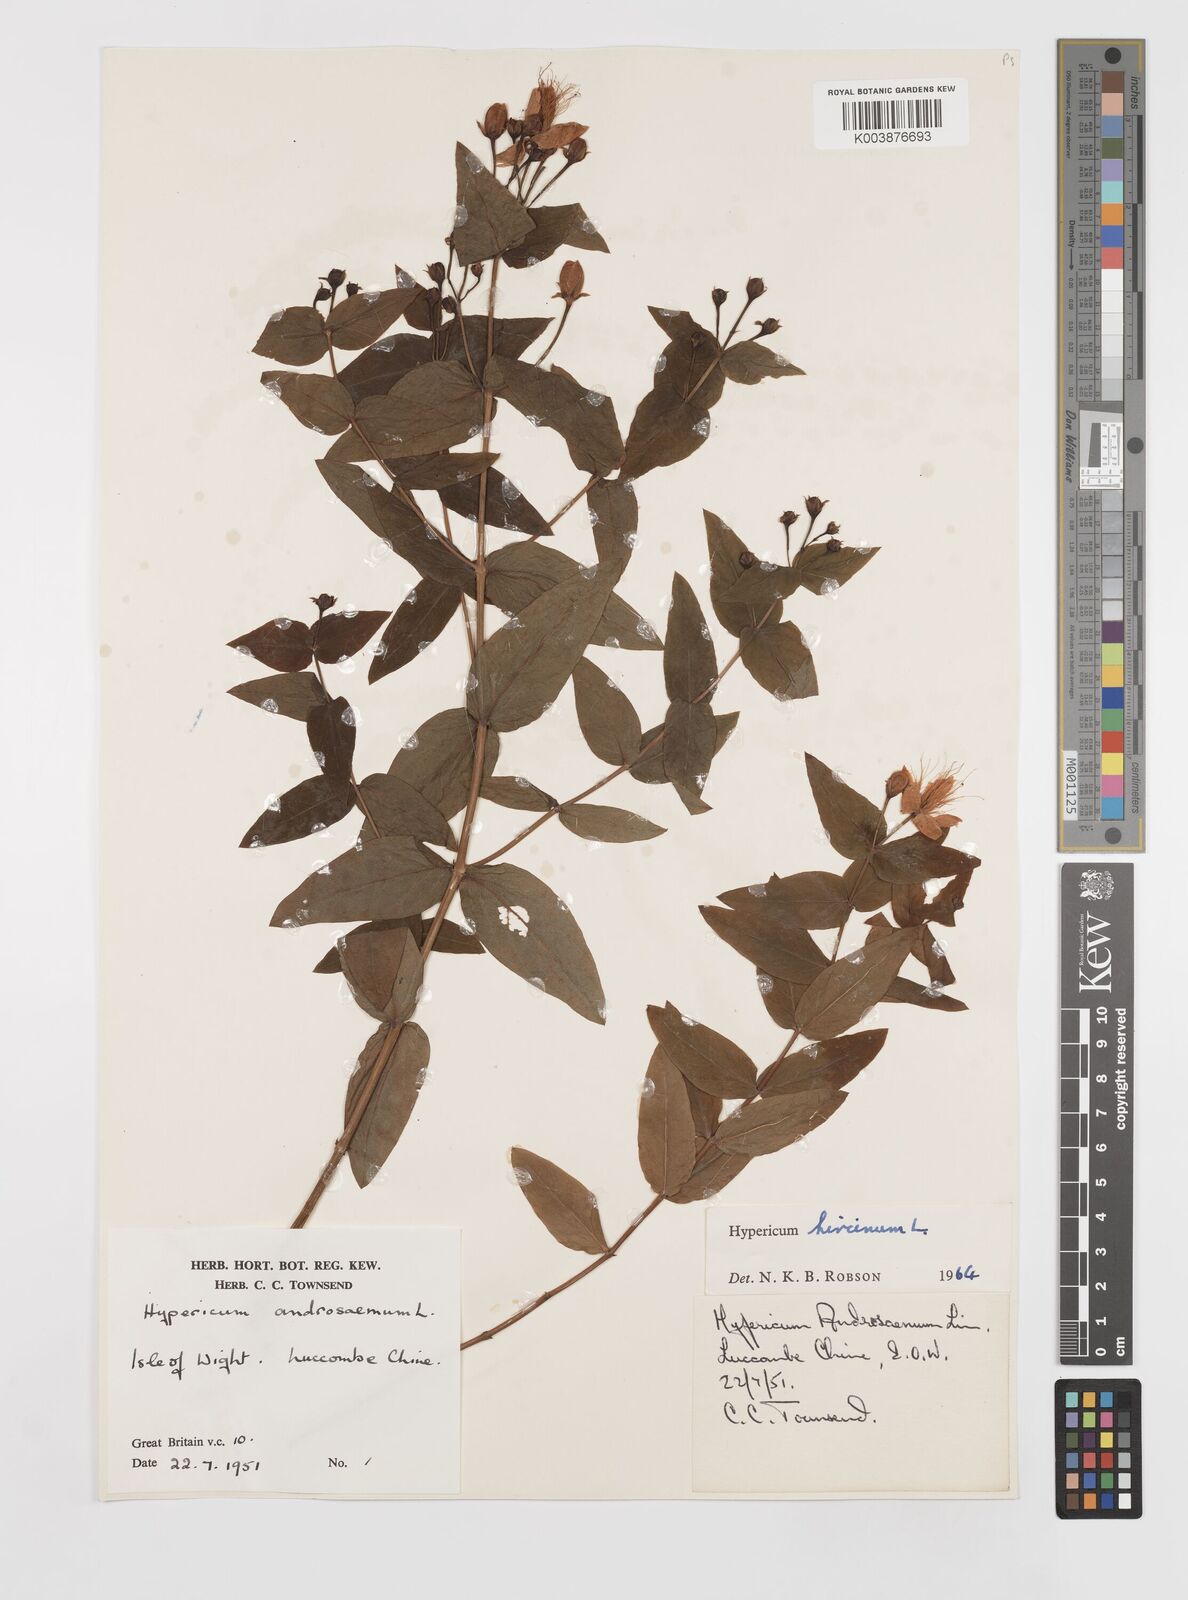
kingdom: Plantae
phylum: Tracheophyta
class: Magnoliopsida
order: Malpighiales
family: Hypericaceae
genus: Hypericum
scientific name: Hypericum hircinum
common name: Stinking tutsan
